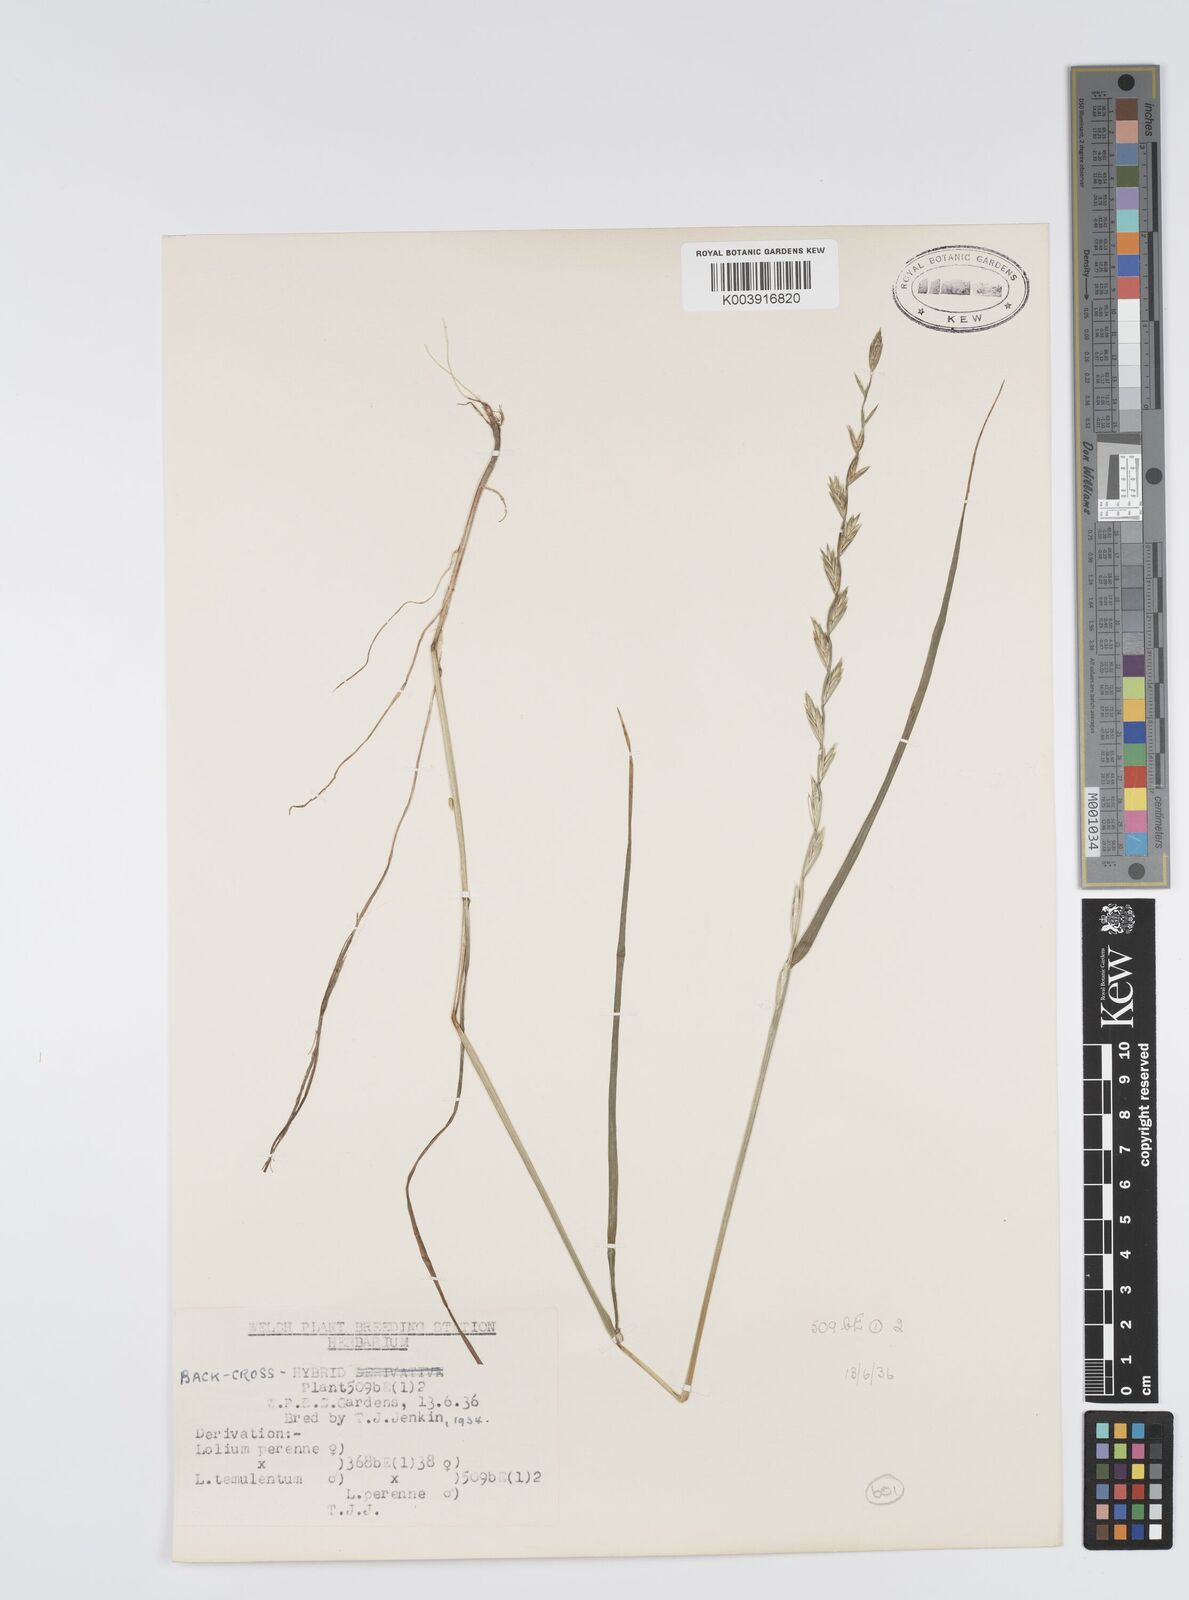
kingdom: Plantae
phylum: Tracheophyta
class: Liliopsida
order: Poales
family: Poaceae
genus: Lolium
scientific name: Lolium perenne
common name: Perennial ryegrass
